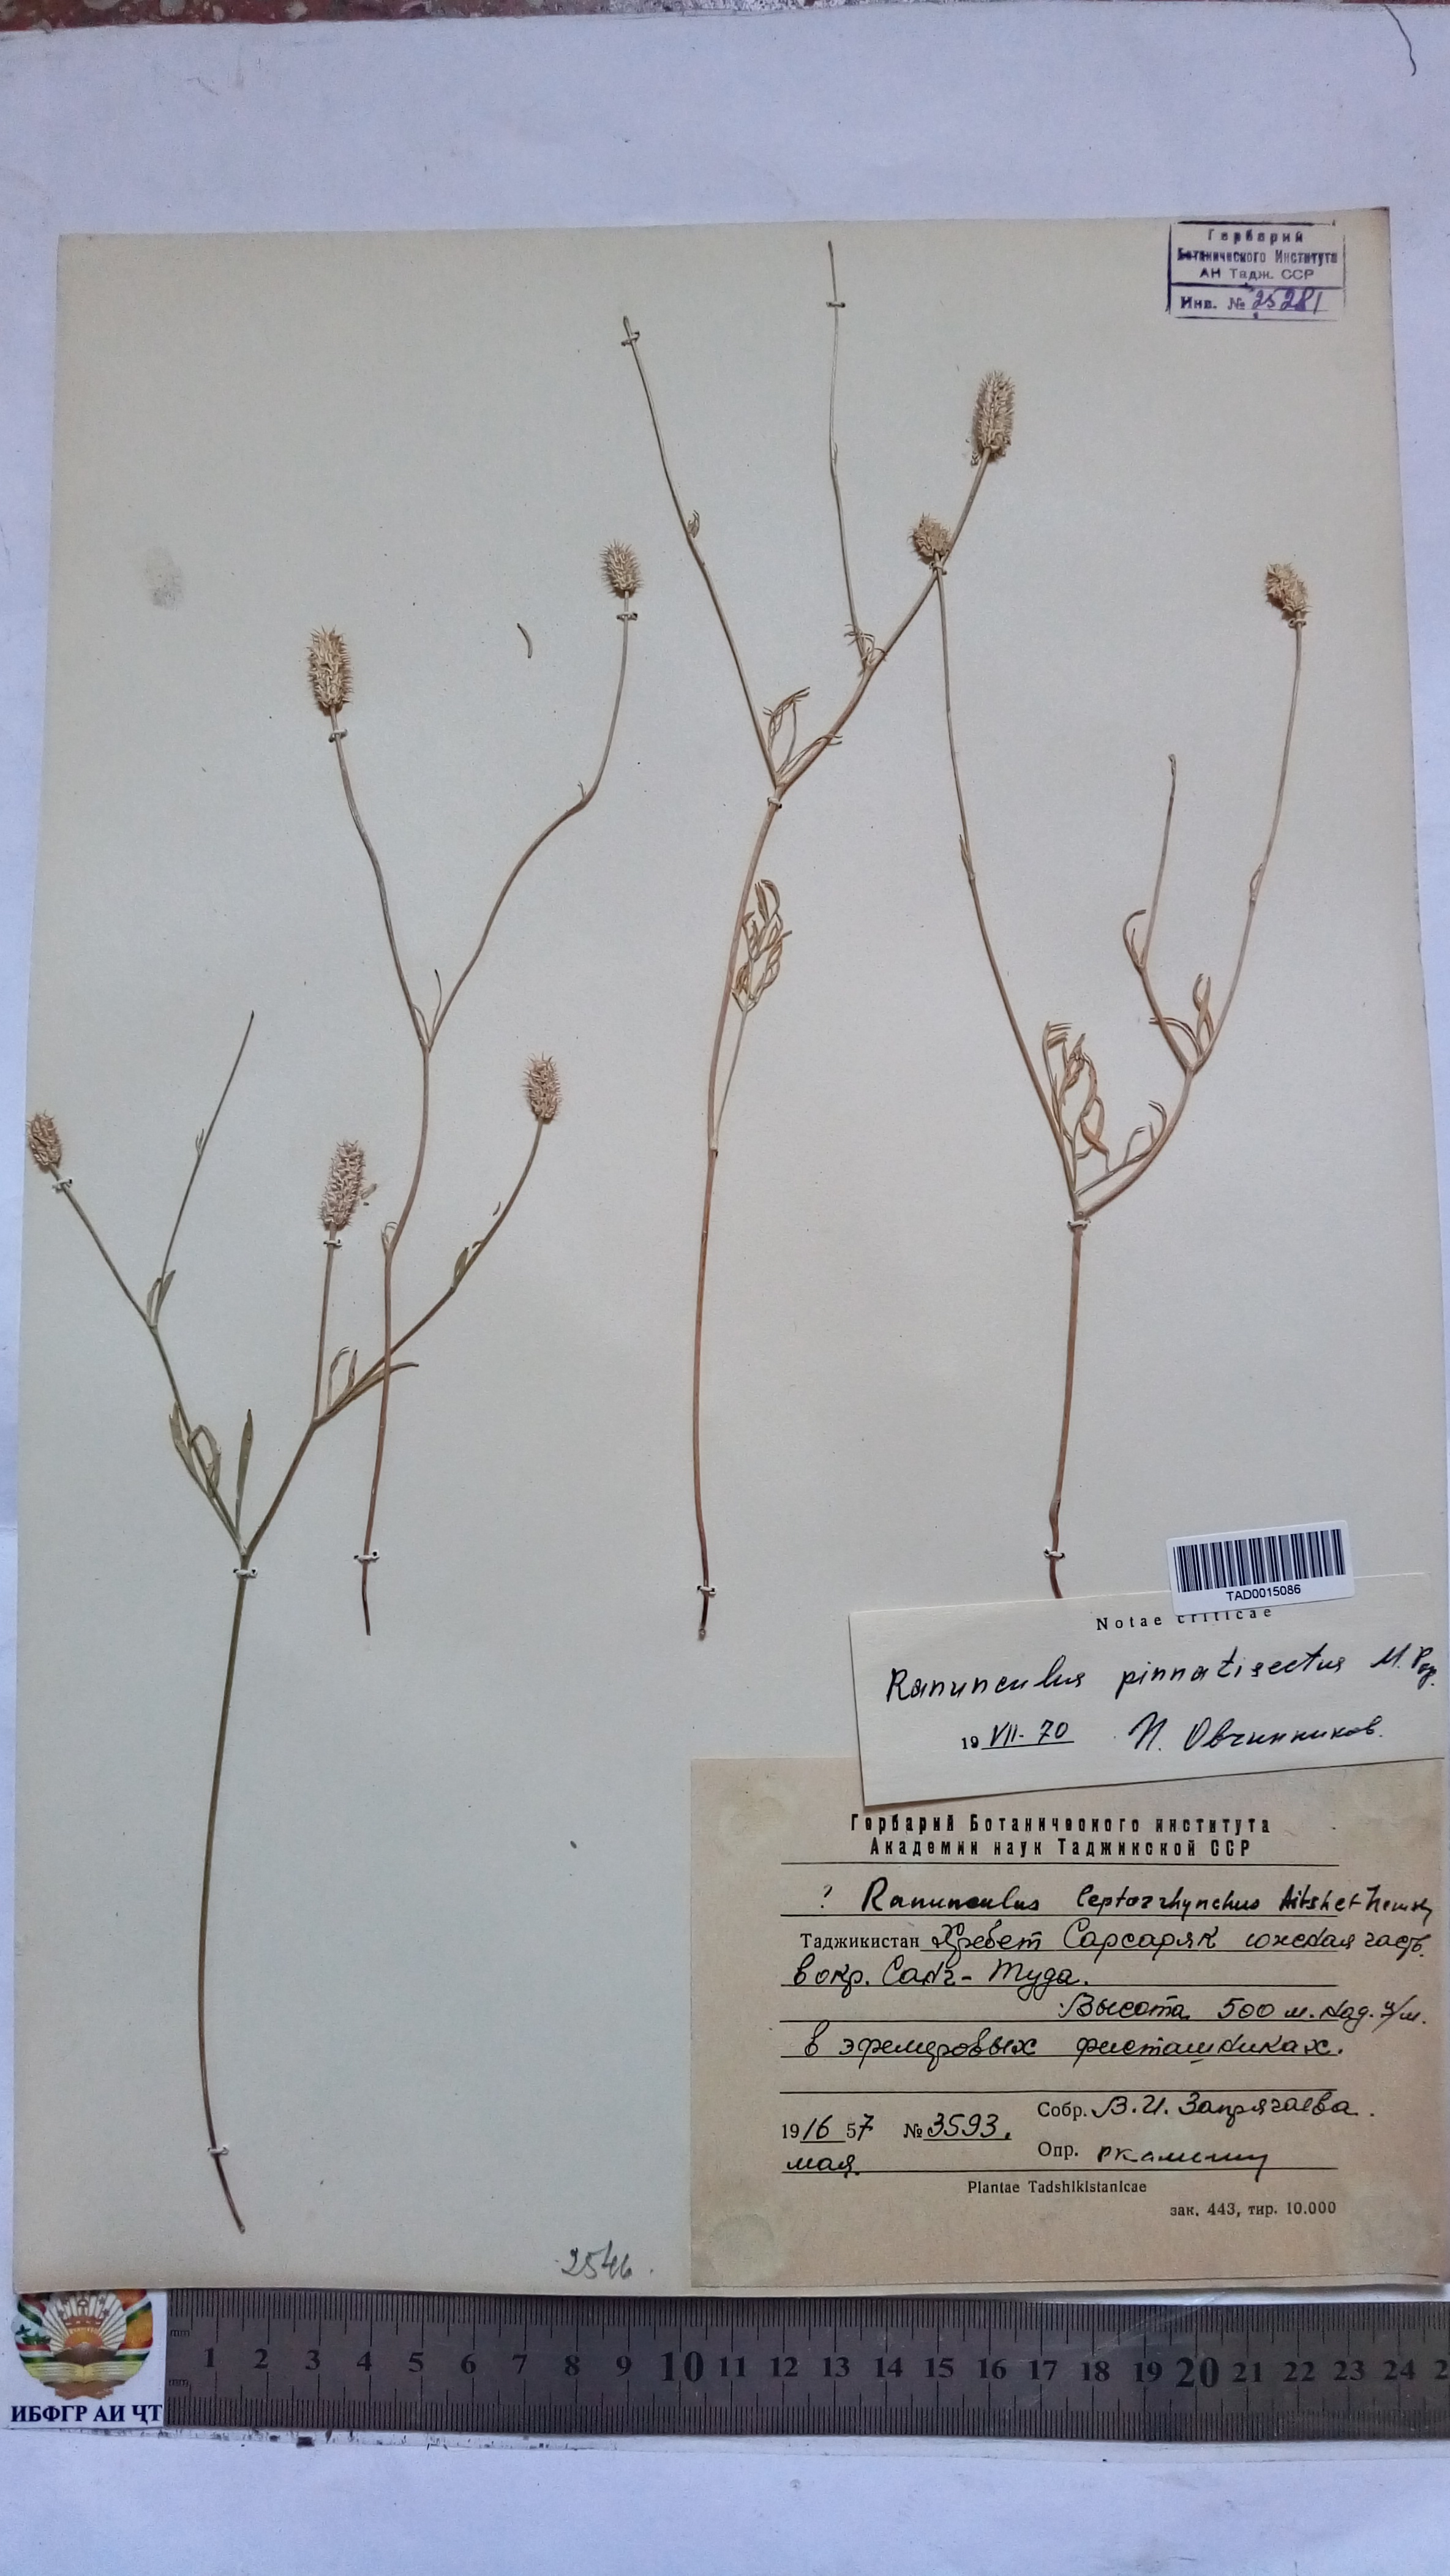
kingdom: Plantae
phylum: Tracheophyta
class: Magnoliopsida
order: Ranunculales
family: Ranunculaceae
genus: Ranunculus
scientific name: Ranunculus pinnatisectus
